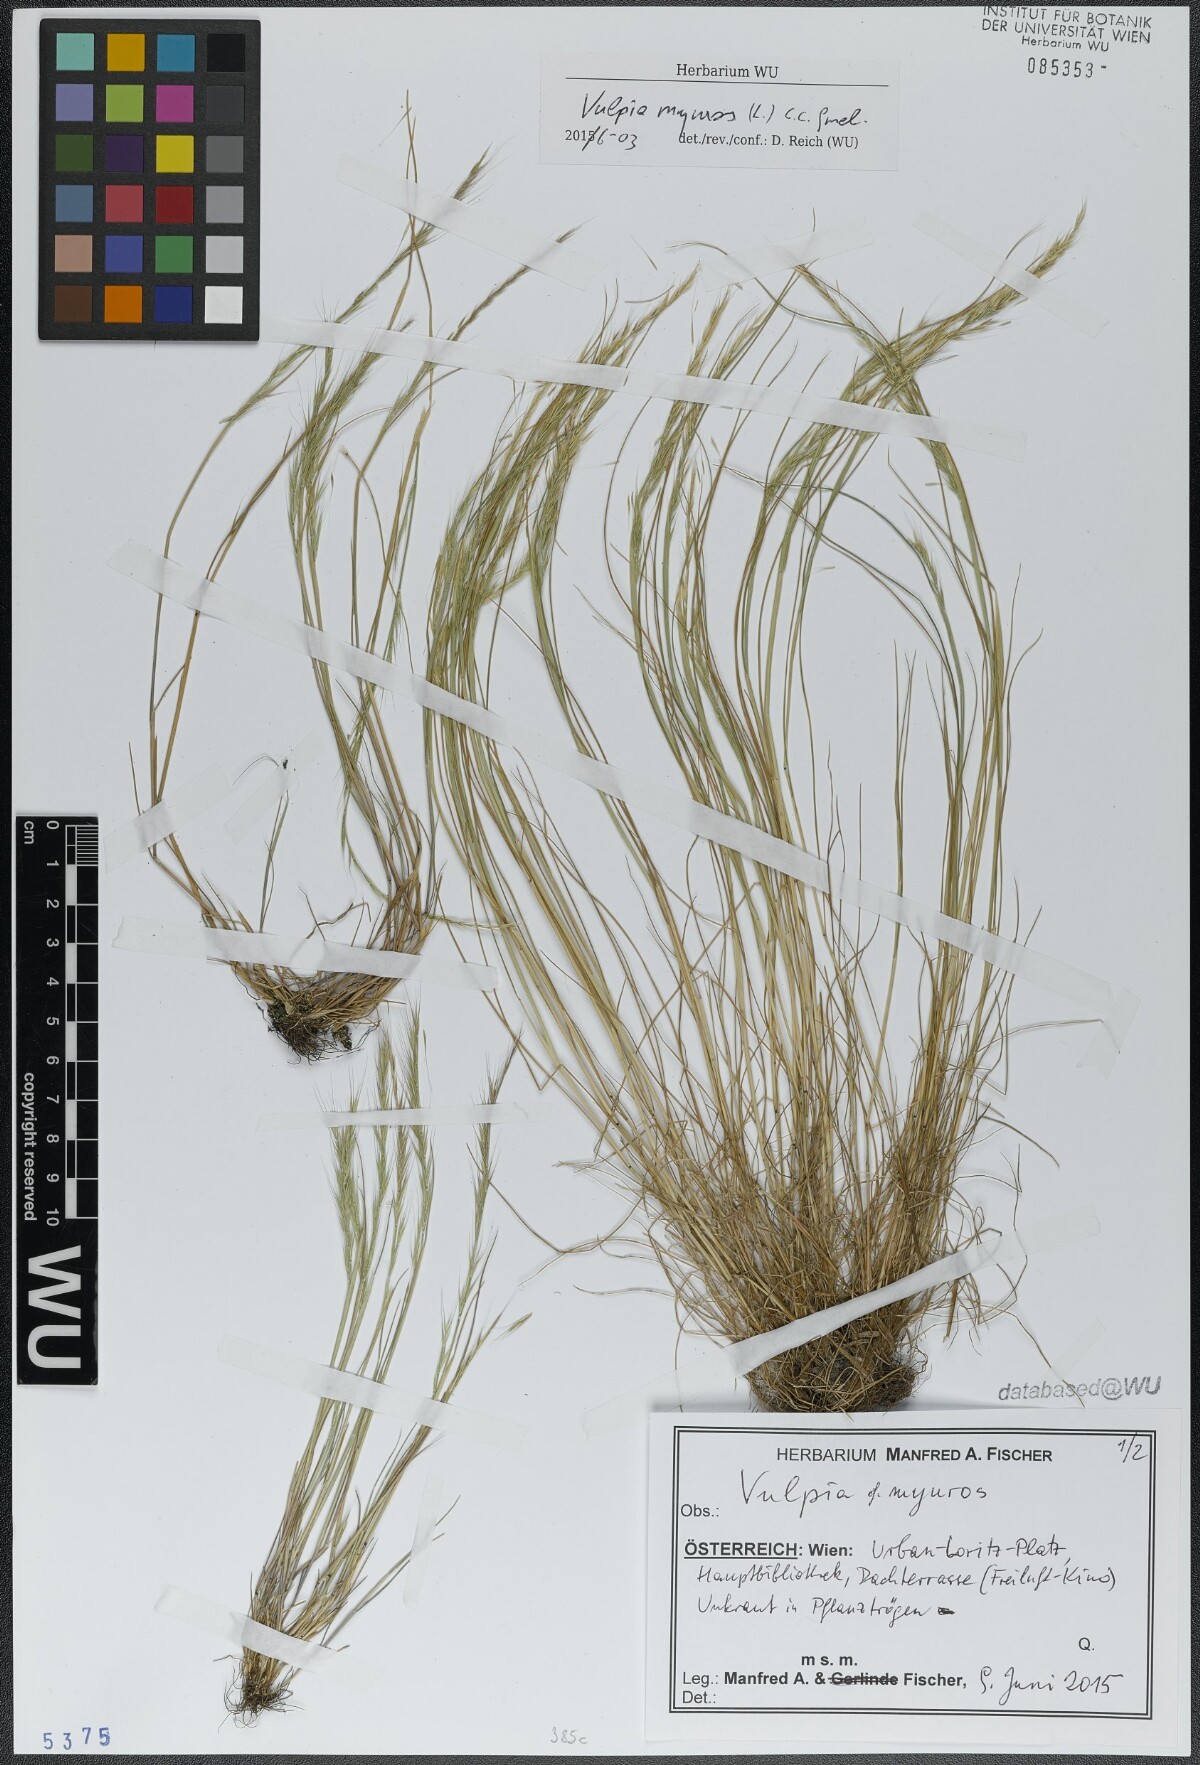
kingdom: Plantae
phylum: Tracheophyta
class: Liliopsida
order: Poales
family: Poaceae
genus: Festuca
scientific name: Festuca myuros
